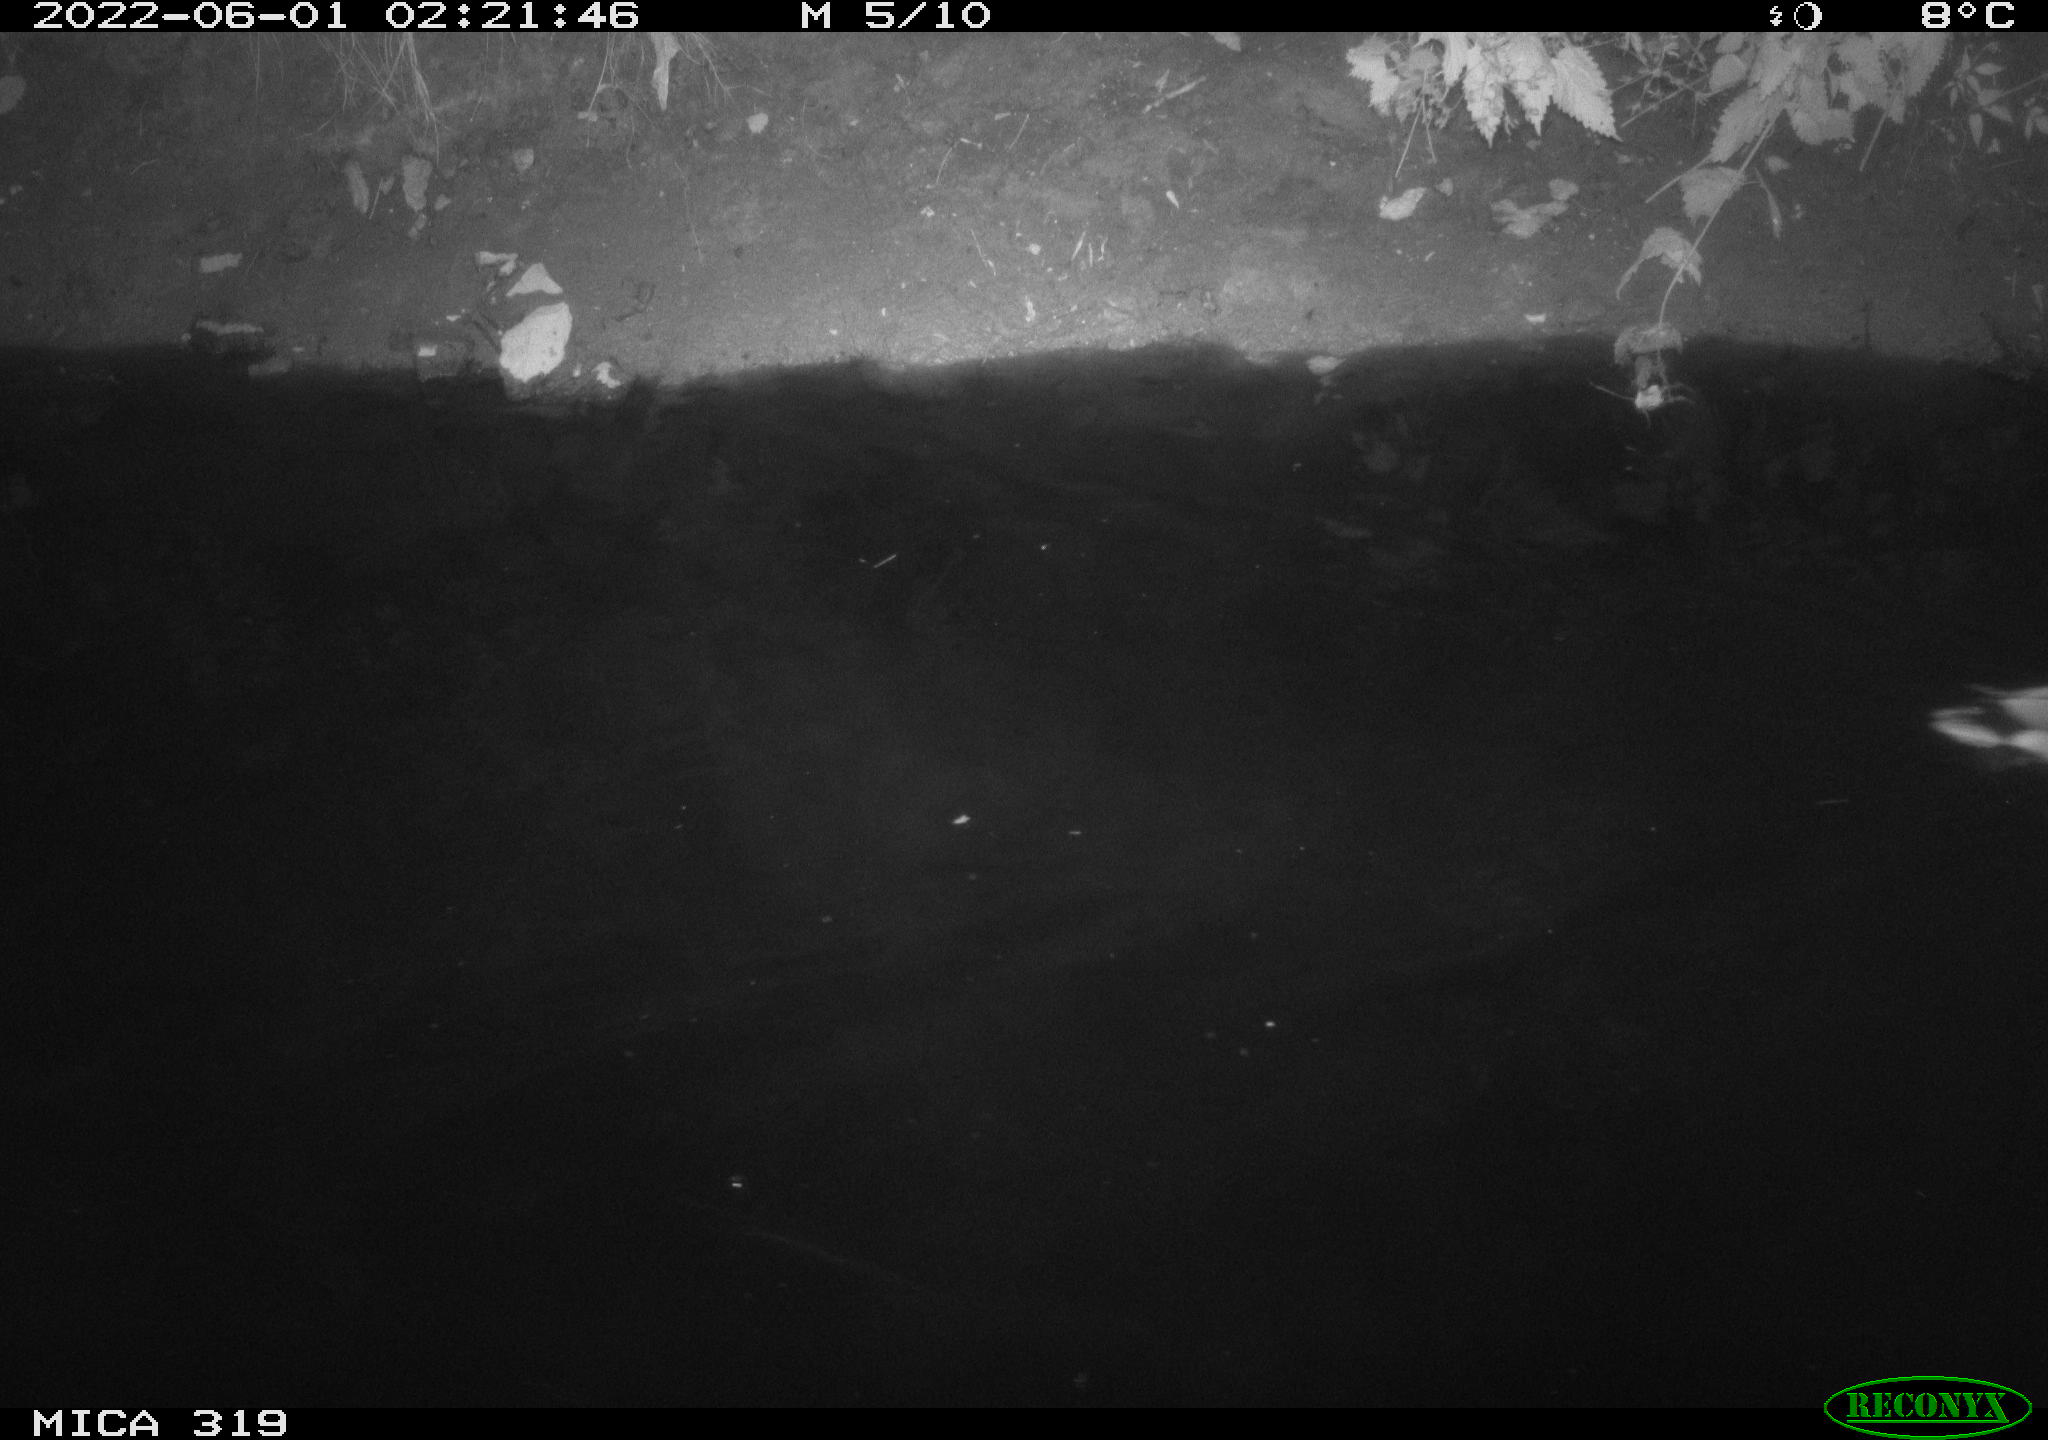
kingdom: Animalia
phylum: Chordata
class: Aves
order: Anseriformes
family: Anatidae
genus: Anas
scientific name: Anas
